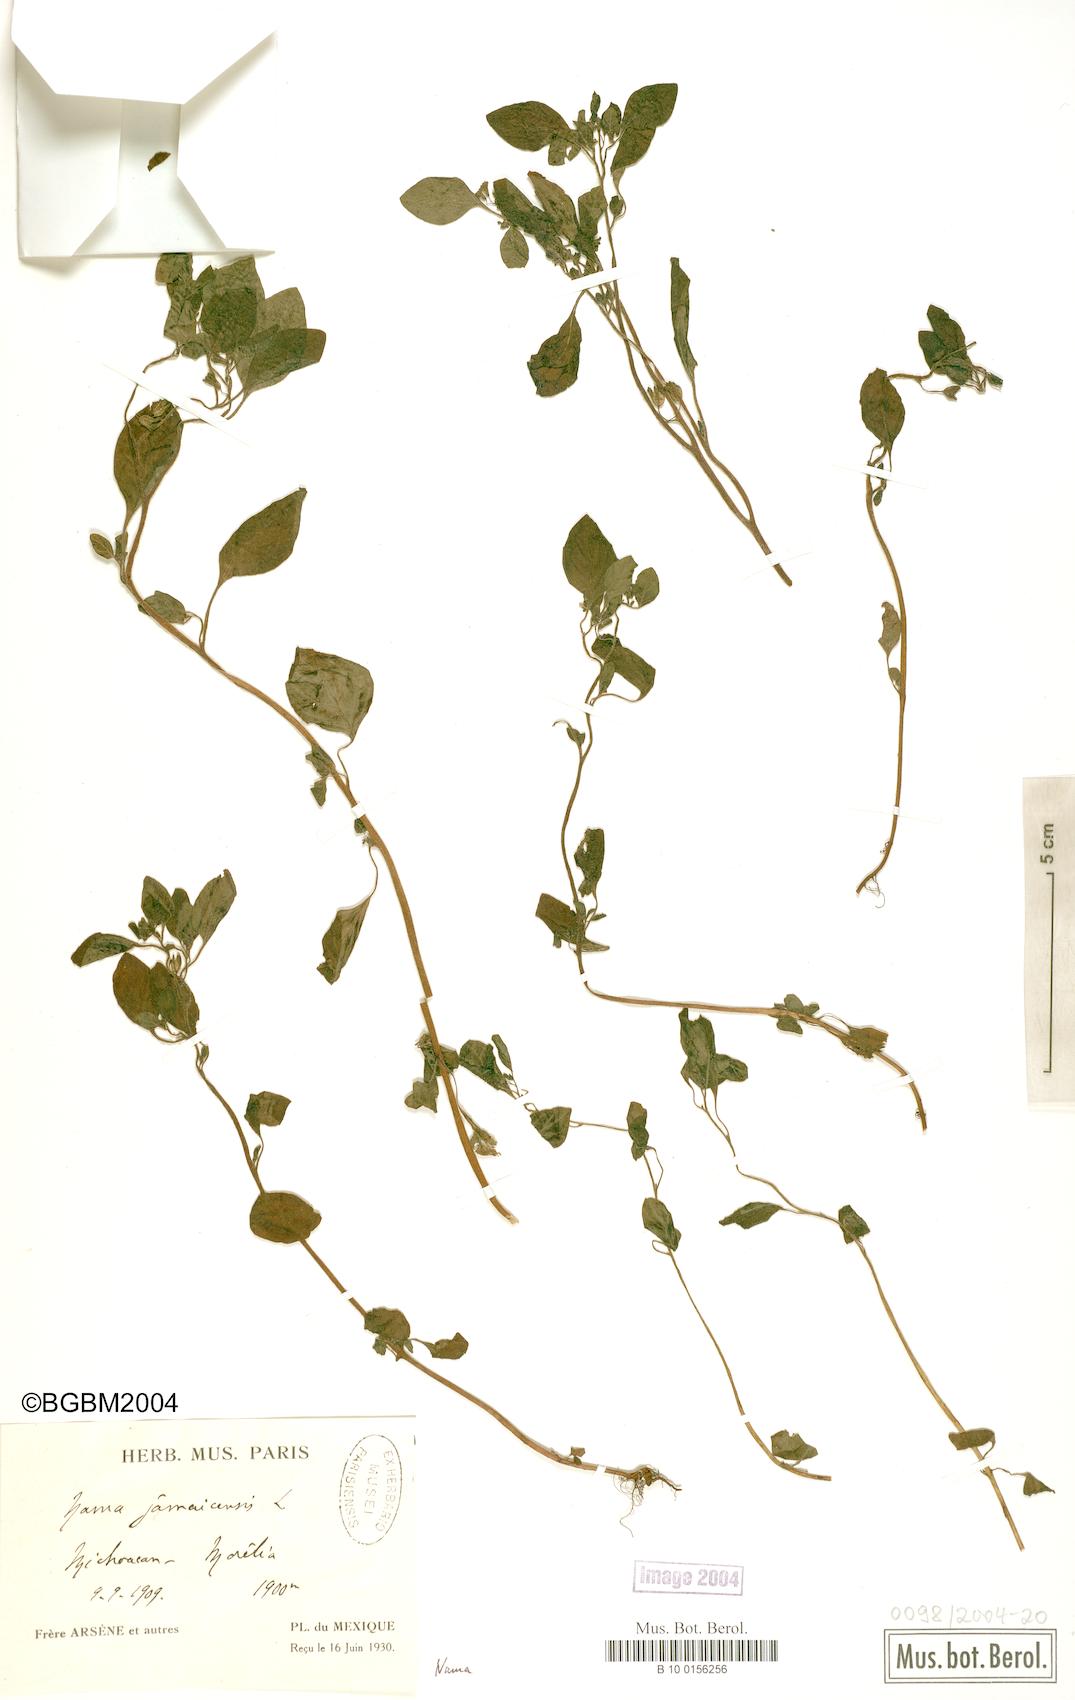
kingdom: Plantae
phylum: Tracheophyta
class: Magnoliopsida
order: Boraginales
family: Namaceae
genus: Nama
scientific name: Nama jamaicensis
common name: Jamaicanweed
